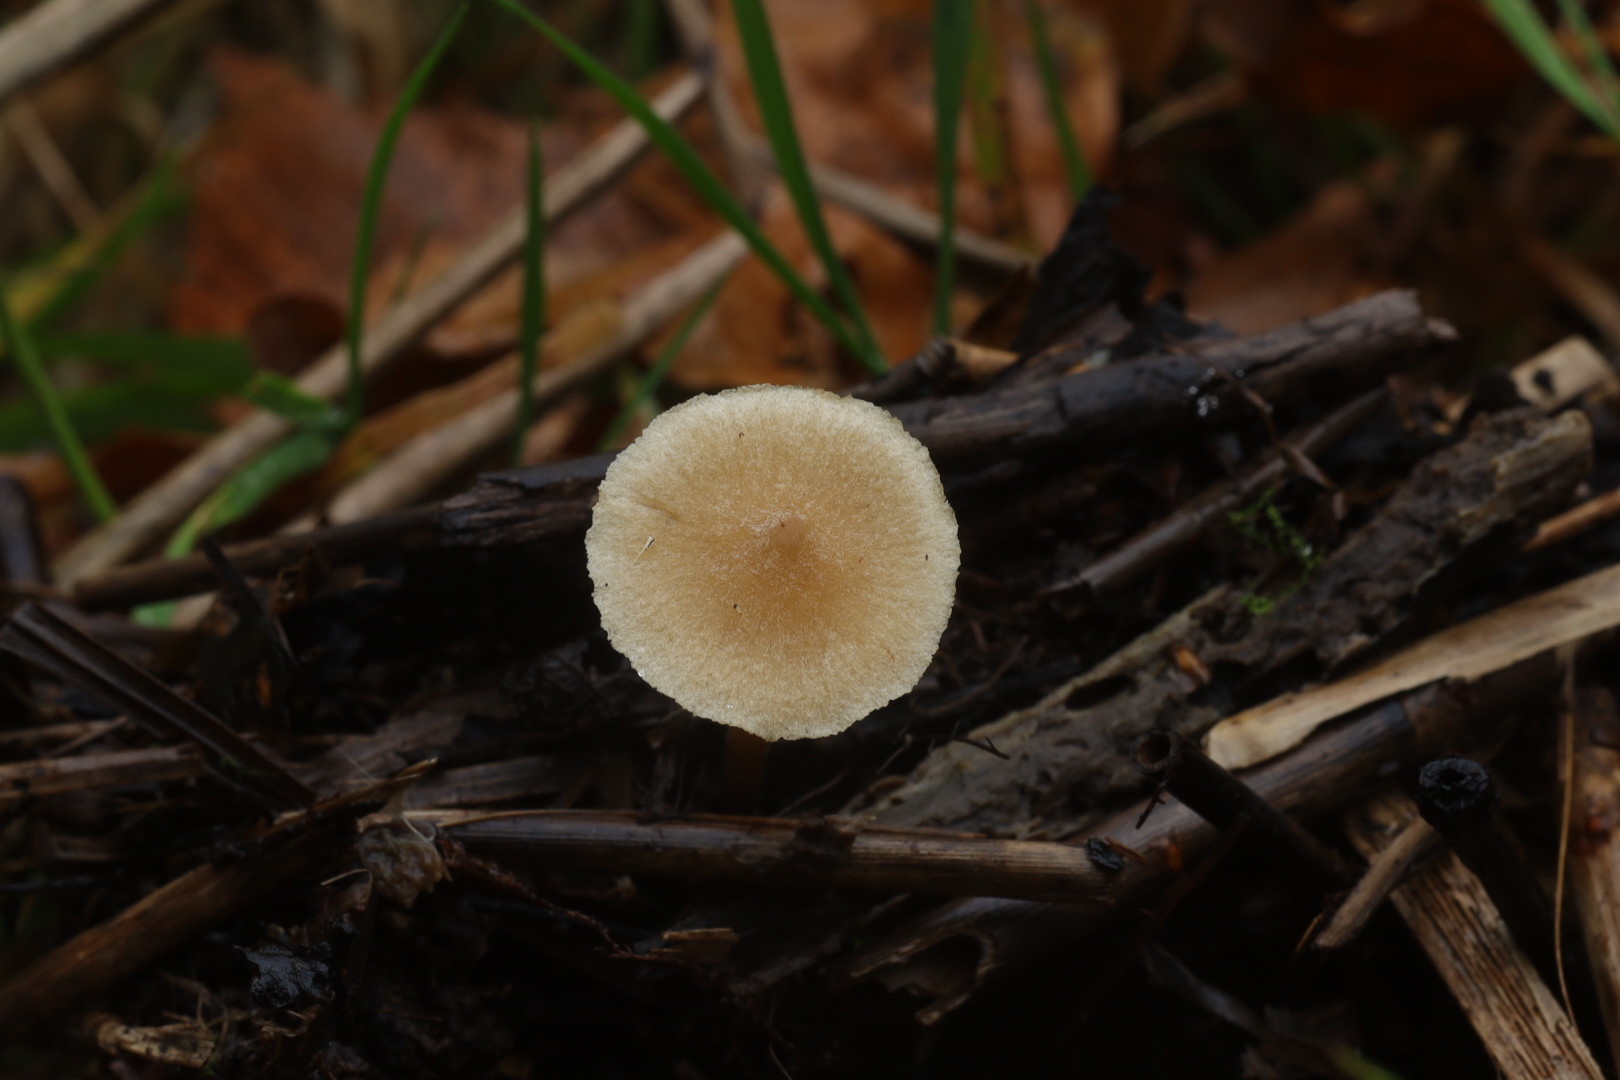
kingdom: Fungi
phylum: Basidiomycota
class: Agaricomycetes
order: Agaricales
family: Hymenogastraceae
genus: Naucoria
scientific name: Naucoria escharioides
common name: lys elle-knaphat
